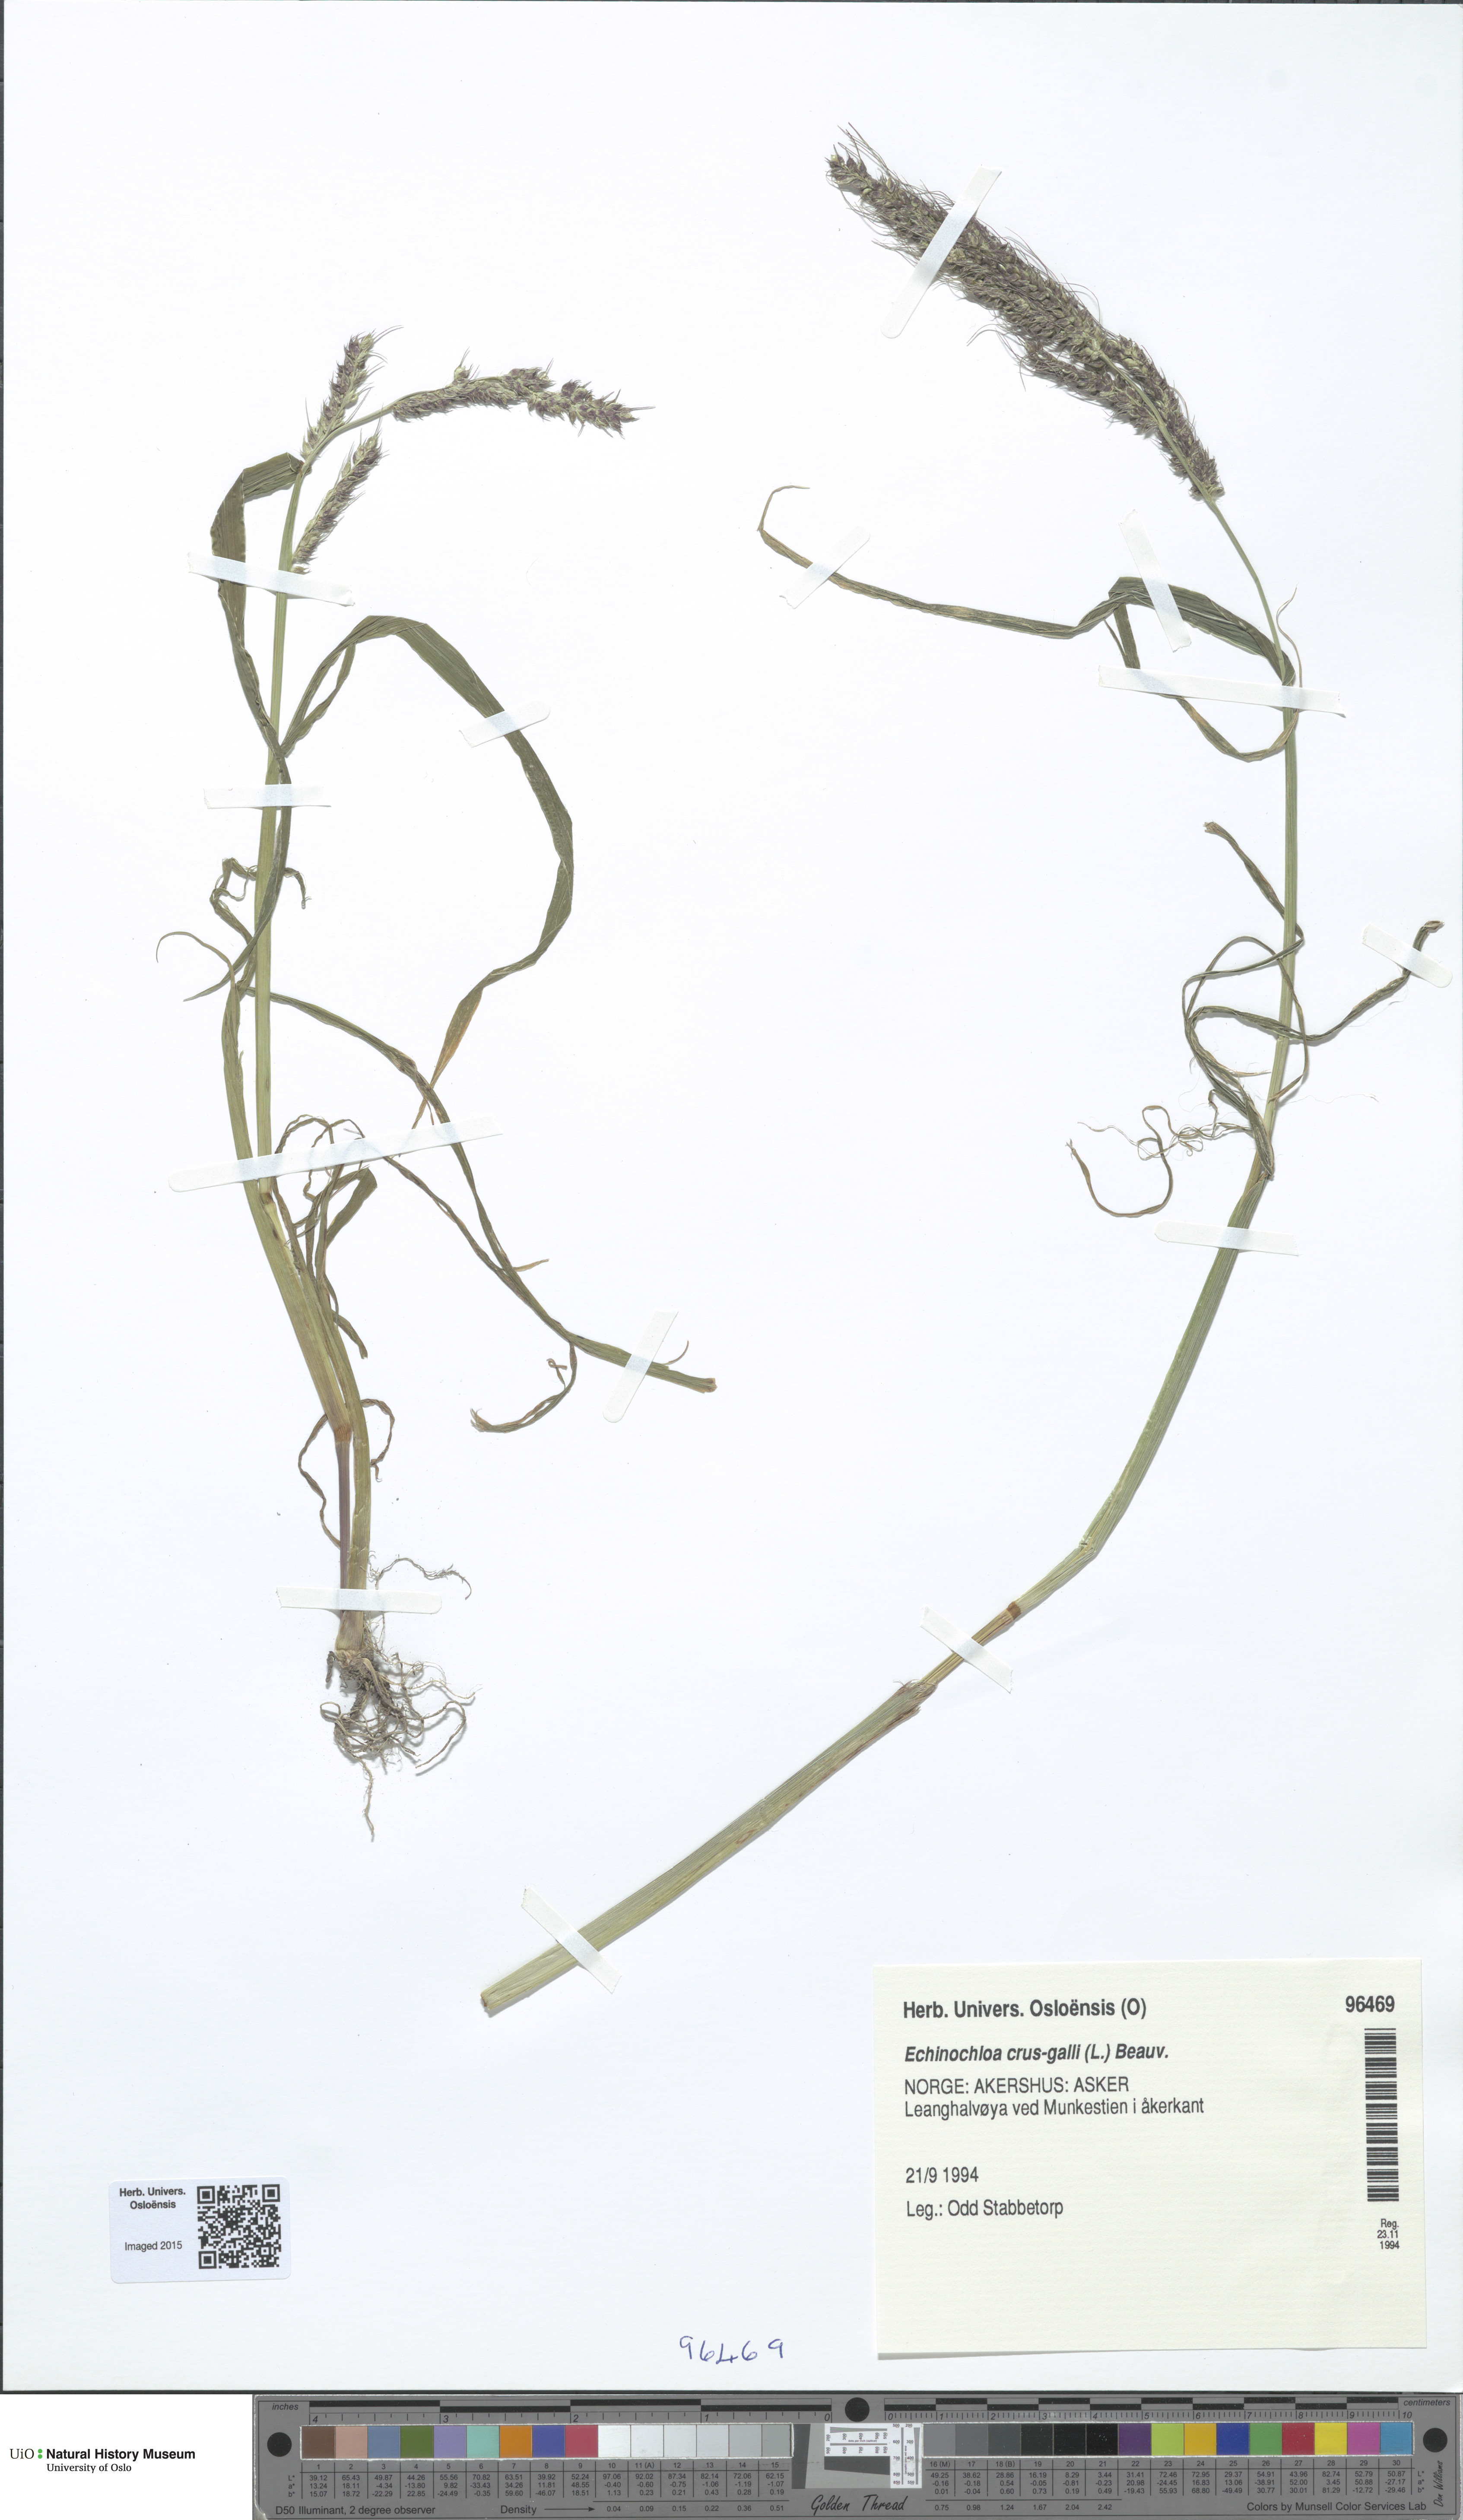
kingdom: Plantae
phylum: Tracheophyta
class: Liliopsida
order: Poales
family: Poaceae
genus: Echinochloa
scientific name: Echinochloa crus-galli
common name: Cockspur
